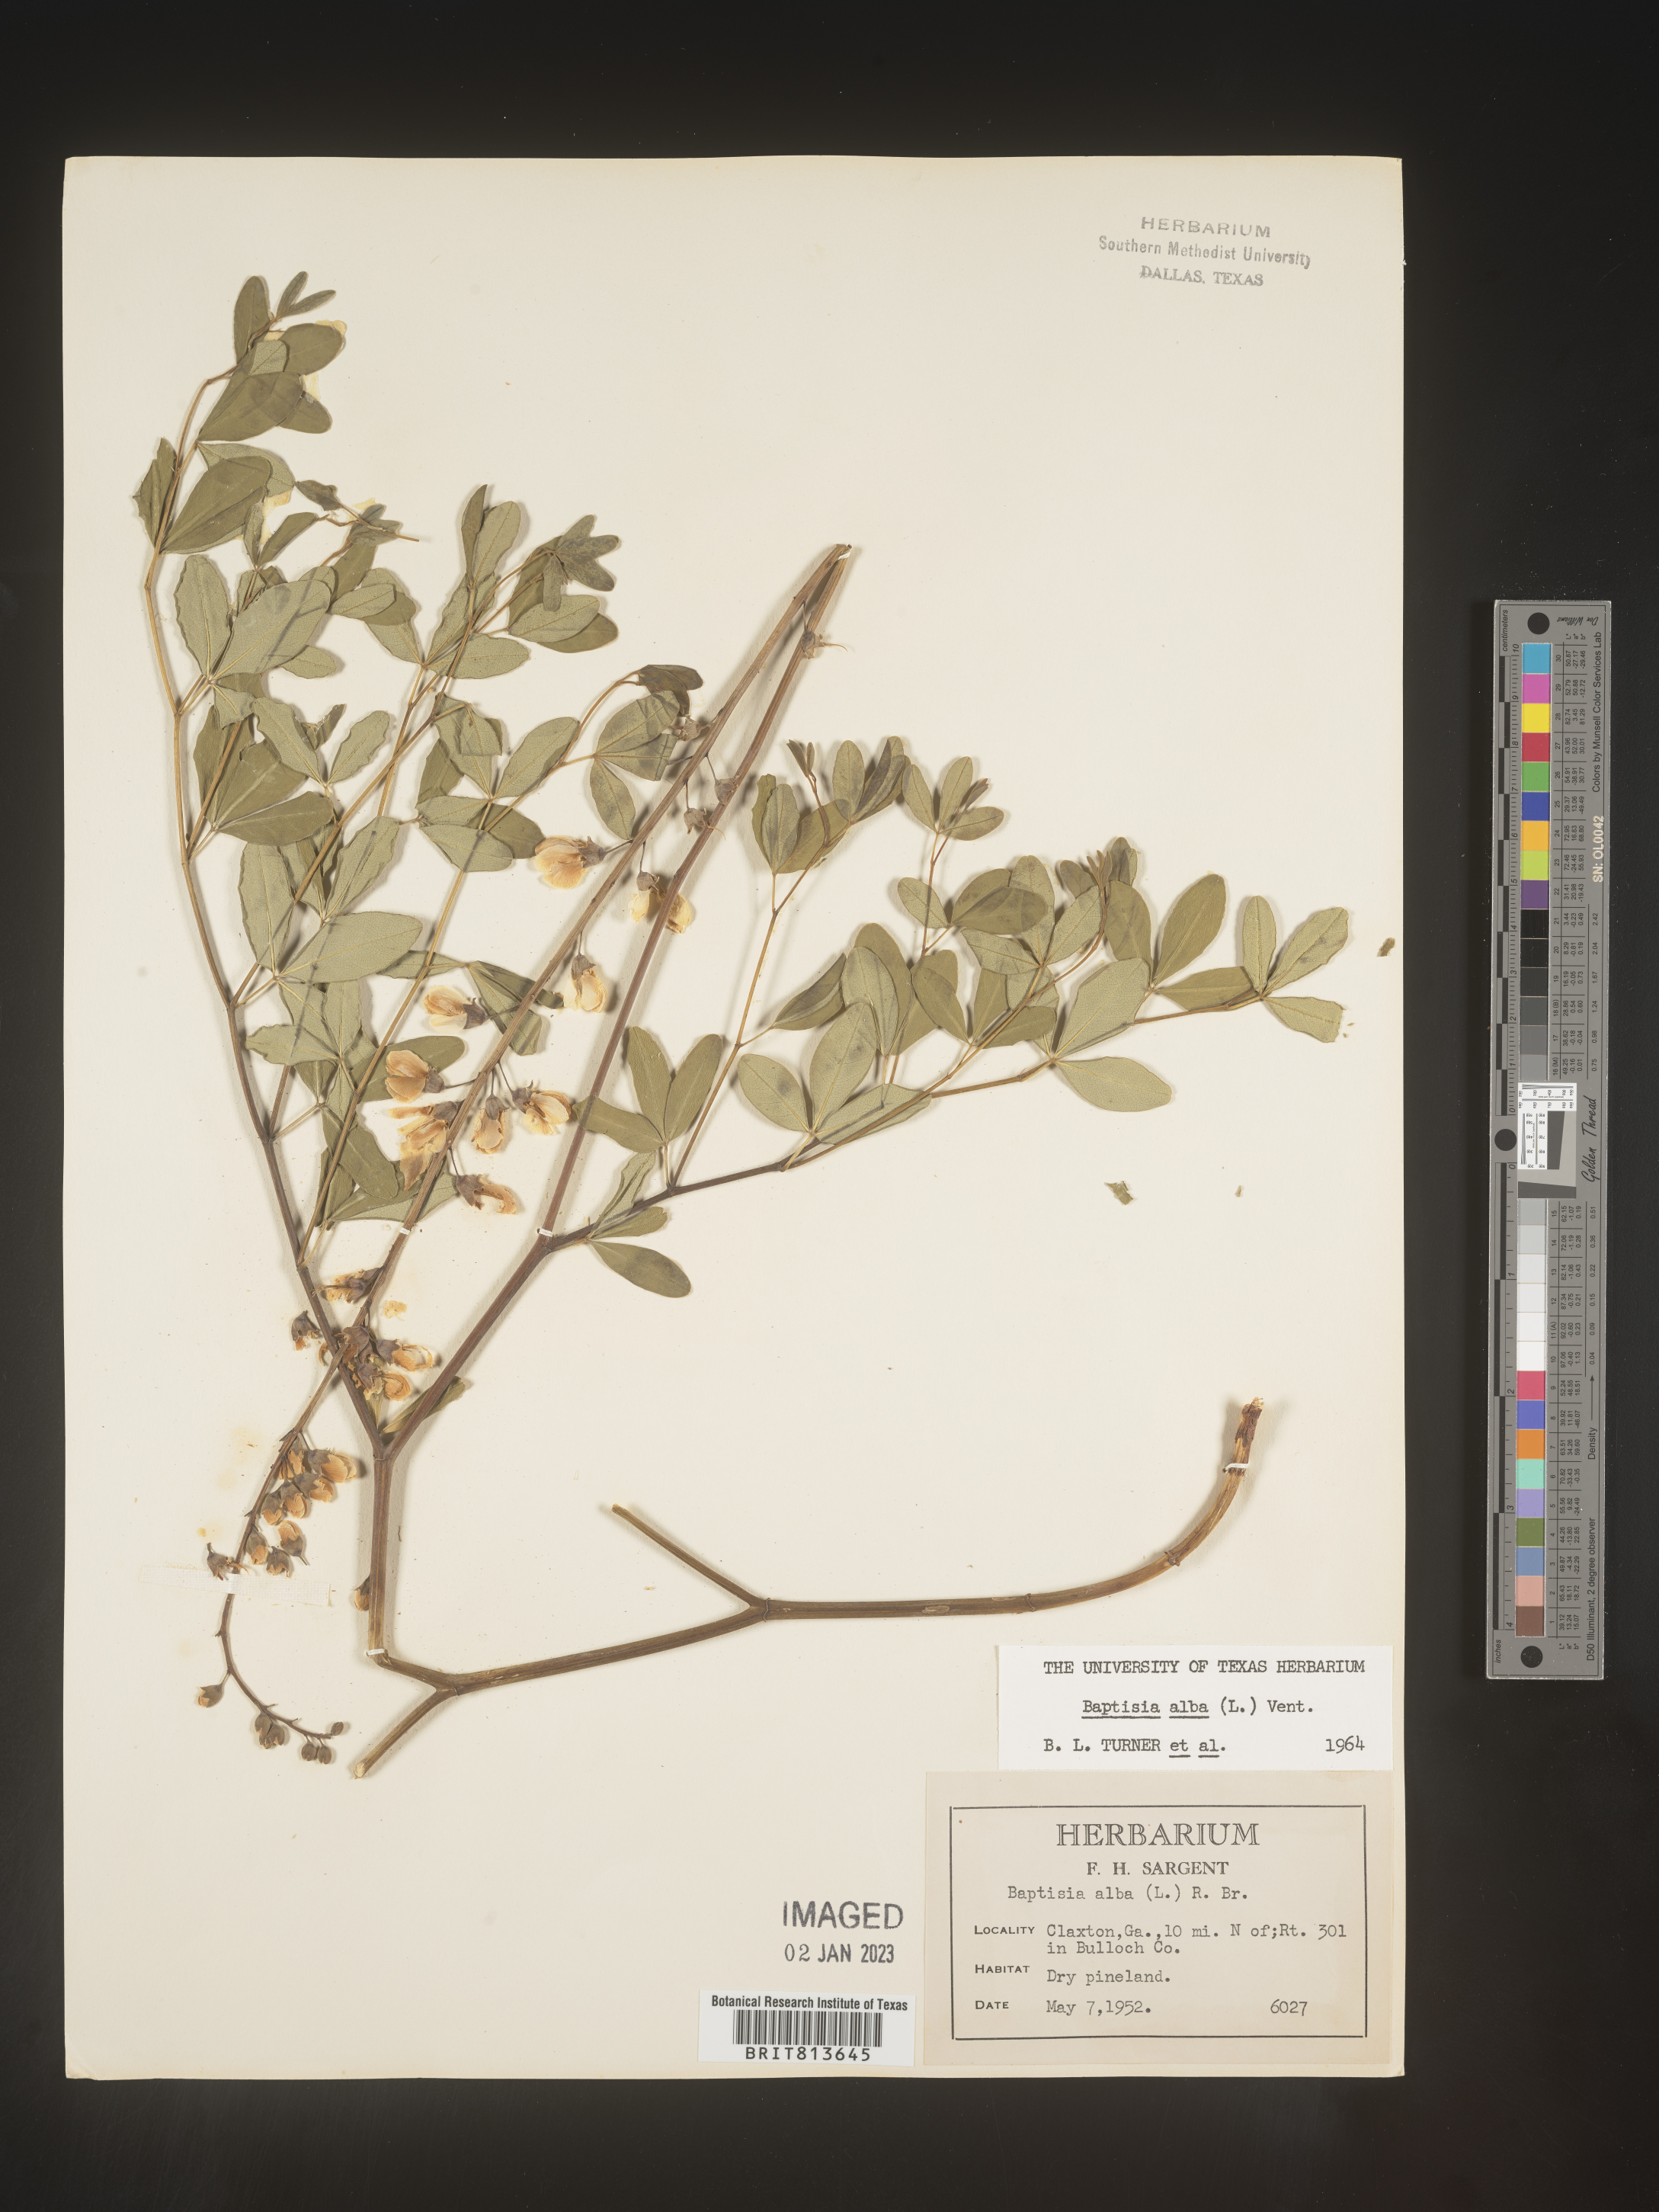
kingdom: Plantae
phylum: Tracheophyta
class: Magnoliopsida
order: Fabales
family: Fabaceae
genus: Baptisia
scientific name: Baptisia alba
